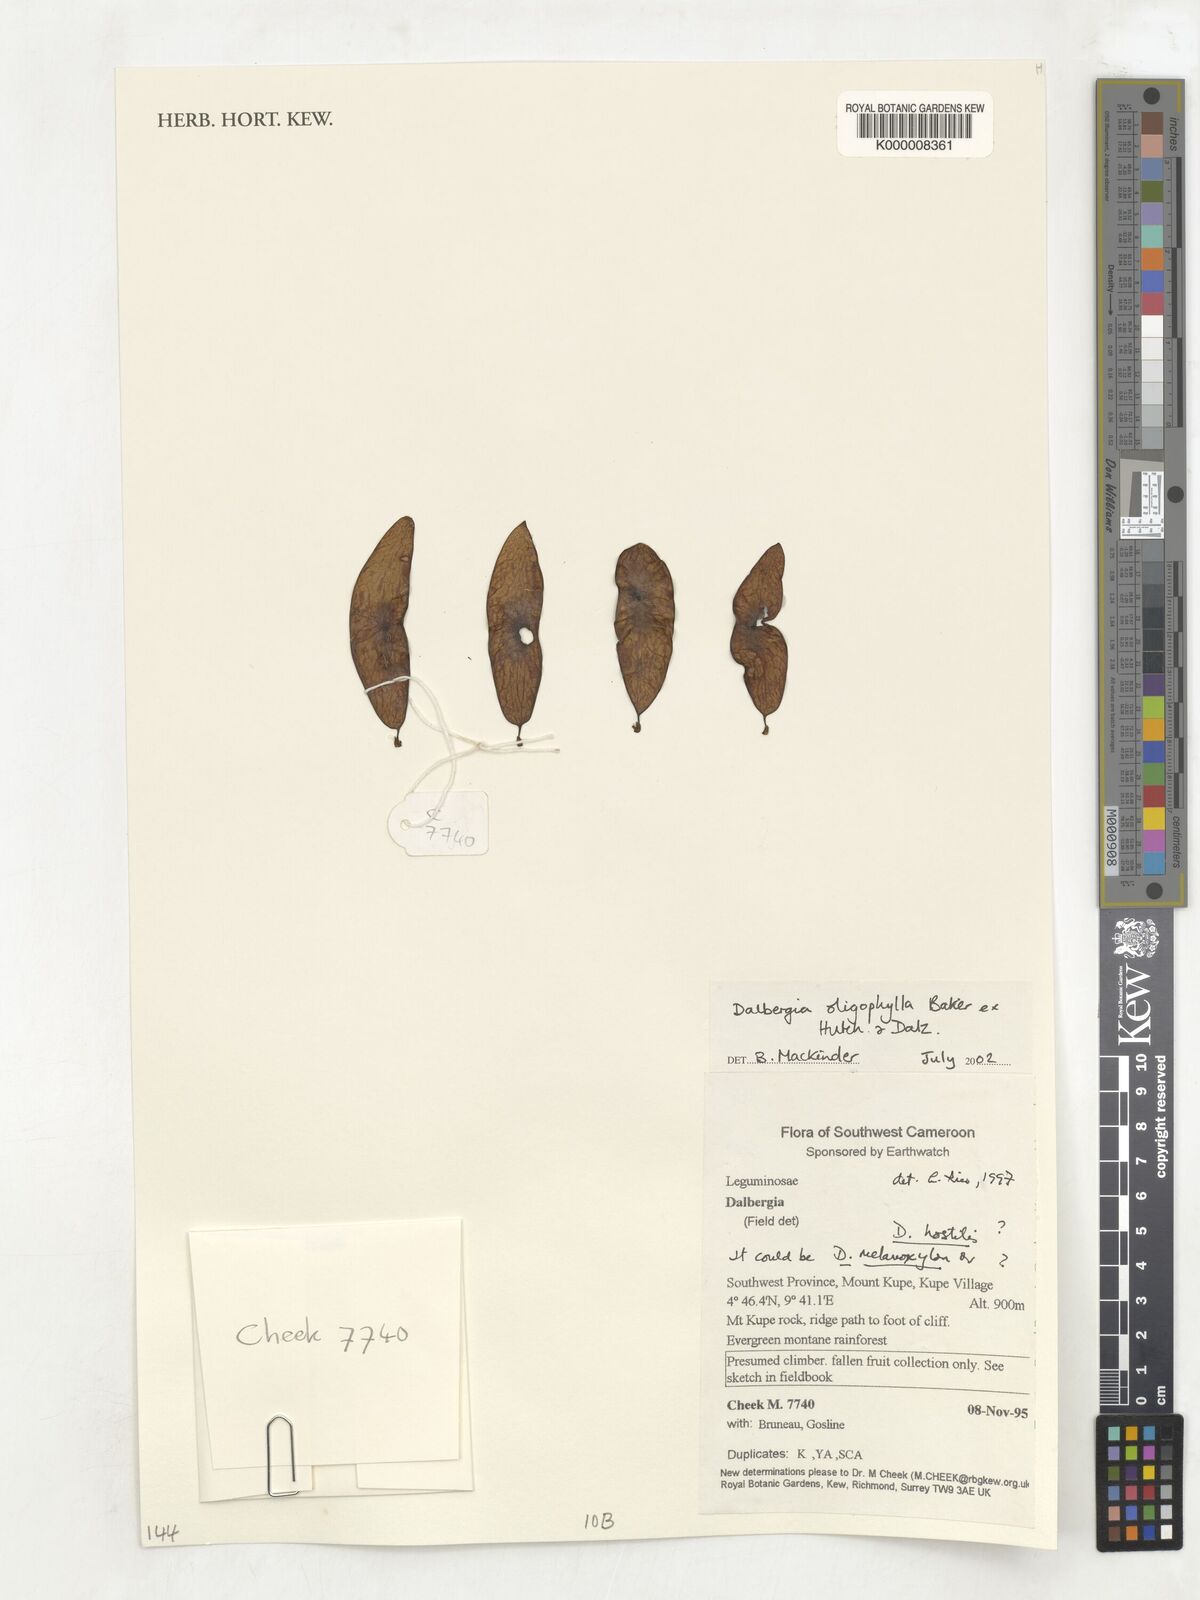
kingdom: Plantae
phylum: Tracheophyta
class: Magnoliopsida
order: Fabales
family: Fabaceae
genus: Dalbergia
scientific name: Dalbergia oligophylla
